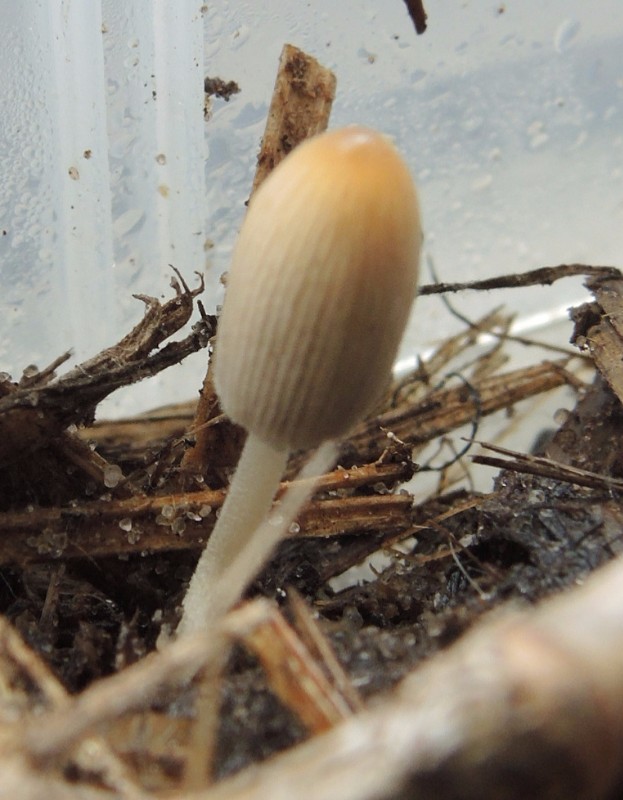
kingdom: Fungi
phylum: Basidiomycota
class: Agaricomycetes
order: Agaricales
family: Psathyrellaceae
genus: Tulosesus
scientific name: Tulosesus congregatus
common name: klynge-blækhat
